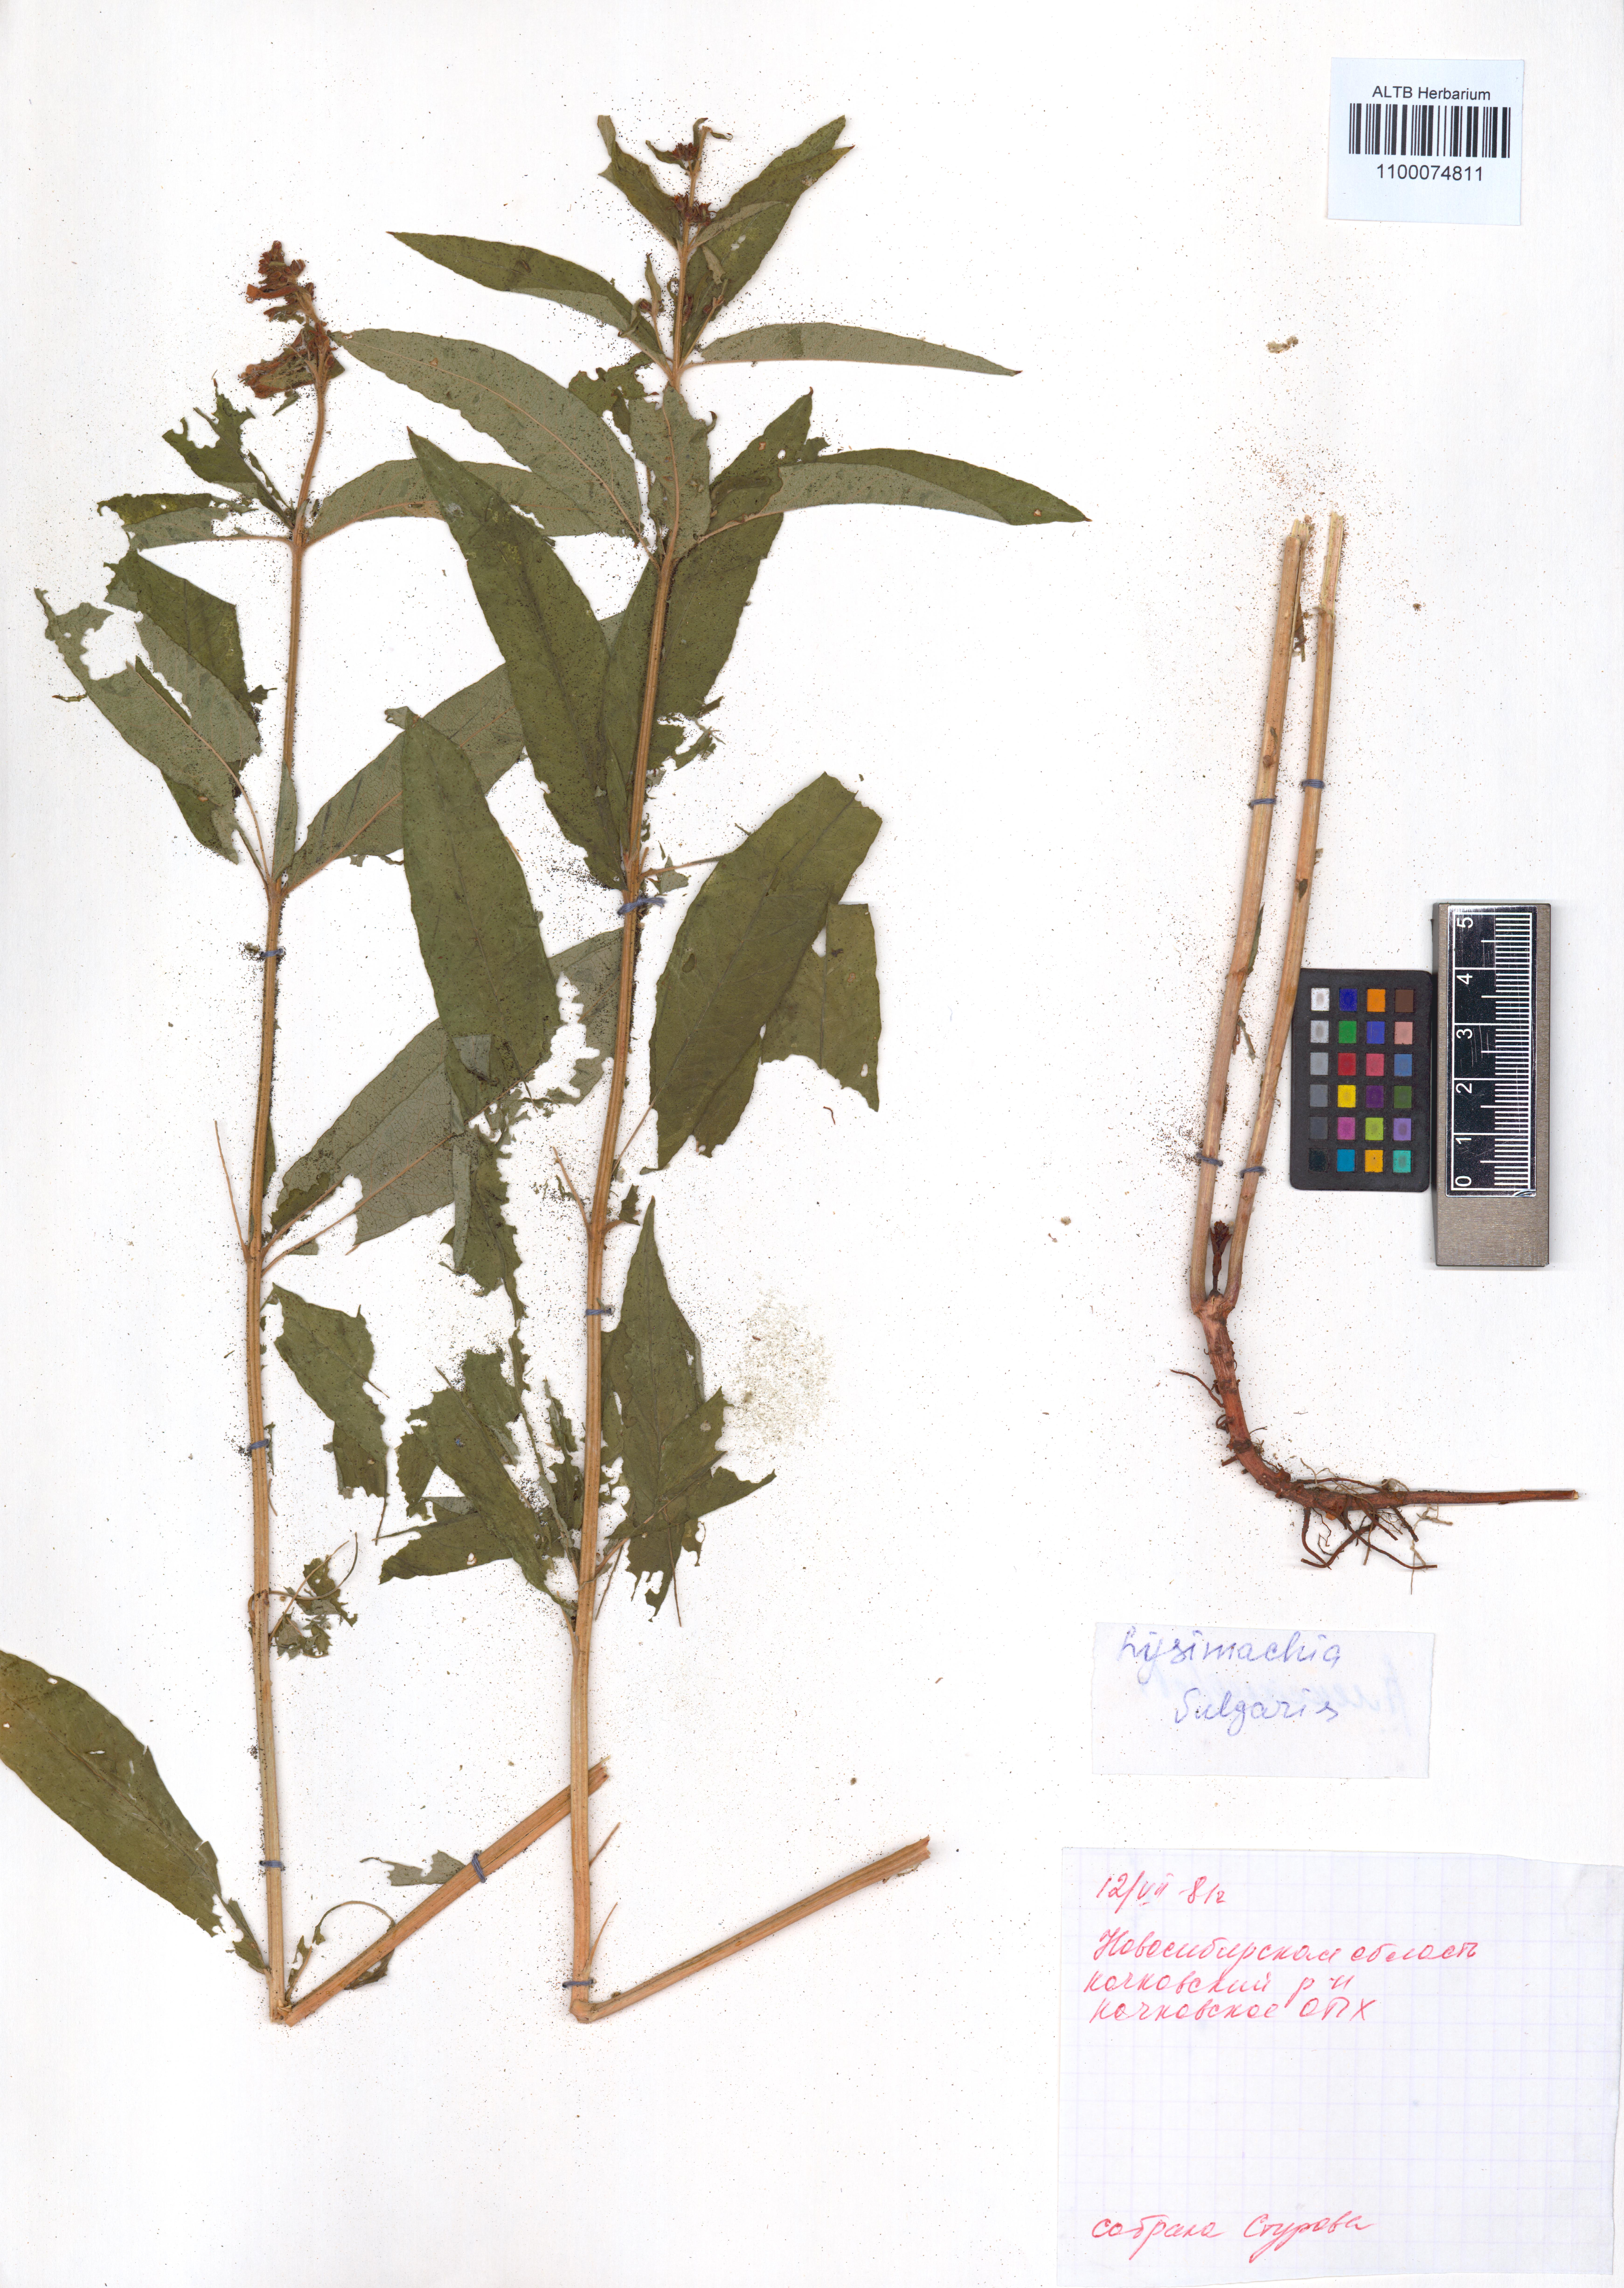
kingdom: Plantae
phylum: Tracheophyta
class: Magnoliopsida
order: Ericales
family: Primulaceae
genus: Lysimachia
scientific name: Lysimachia vulgaris
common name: Yellow loosestrife
